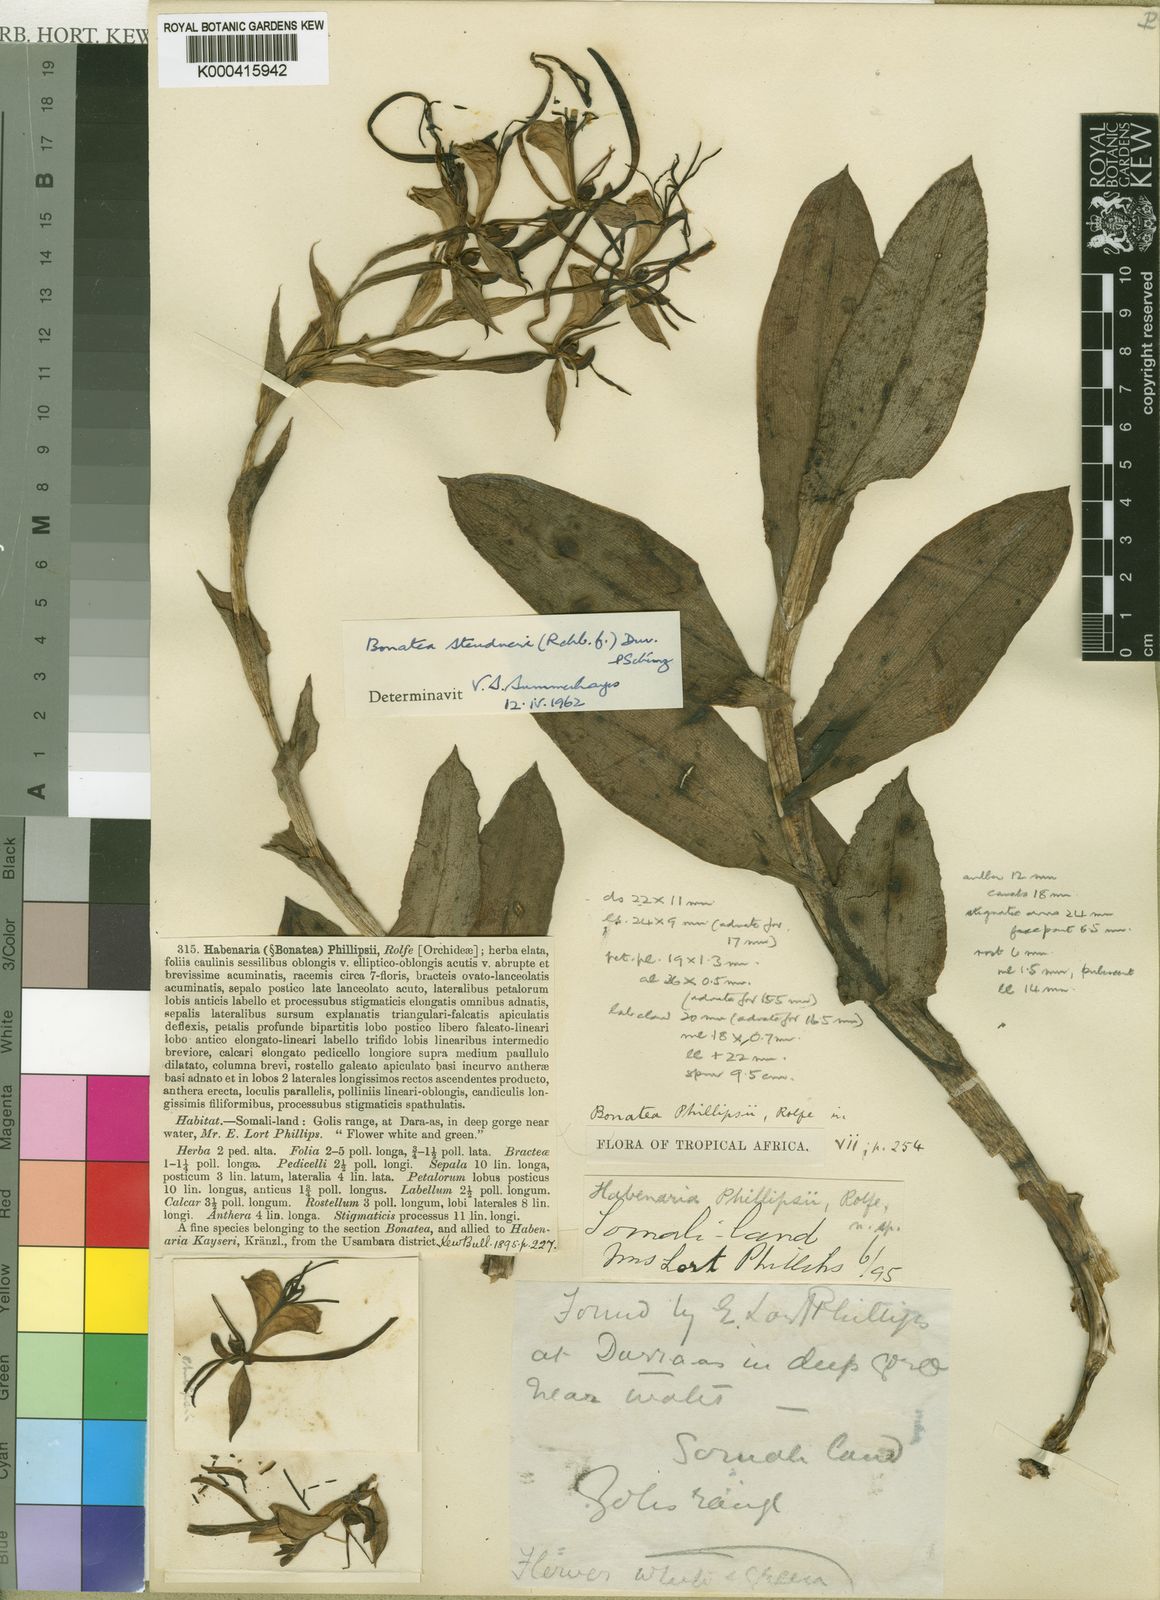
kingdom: Plantae
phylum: Tracheophyta
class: Liliopsida
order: Asparagales
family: Orchidaceae
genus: Bonatea
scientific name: Bonatea steudneri
